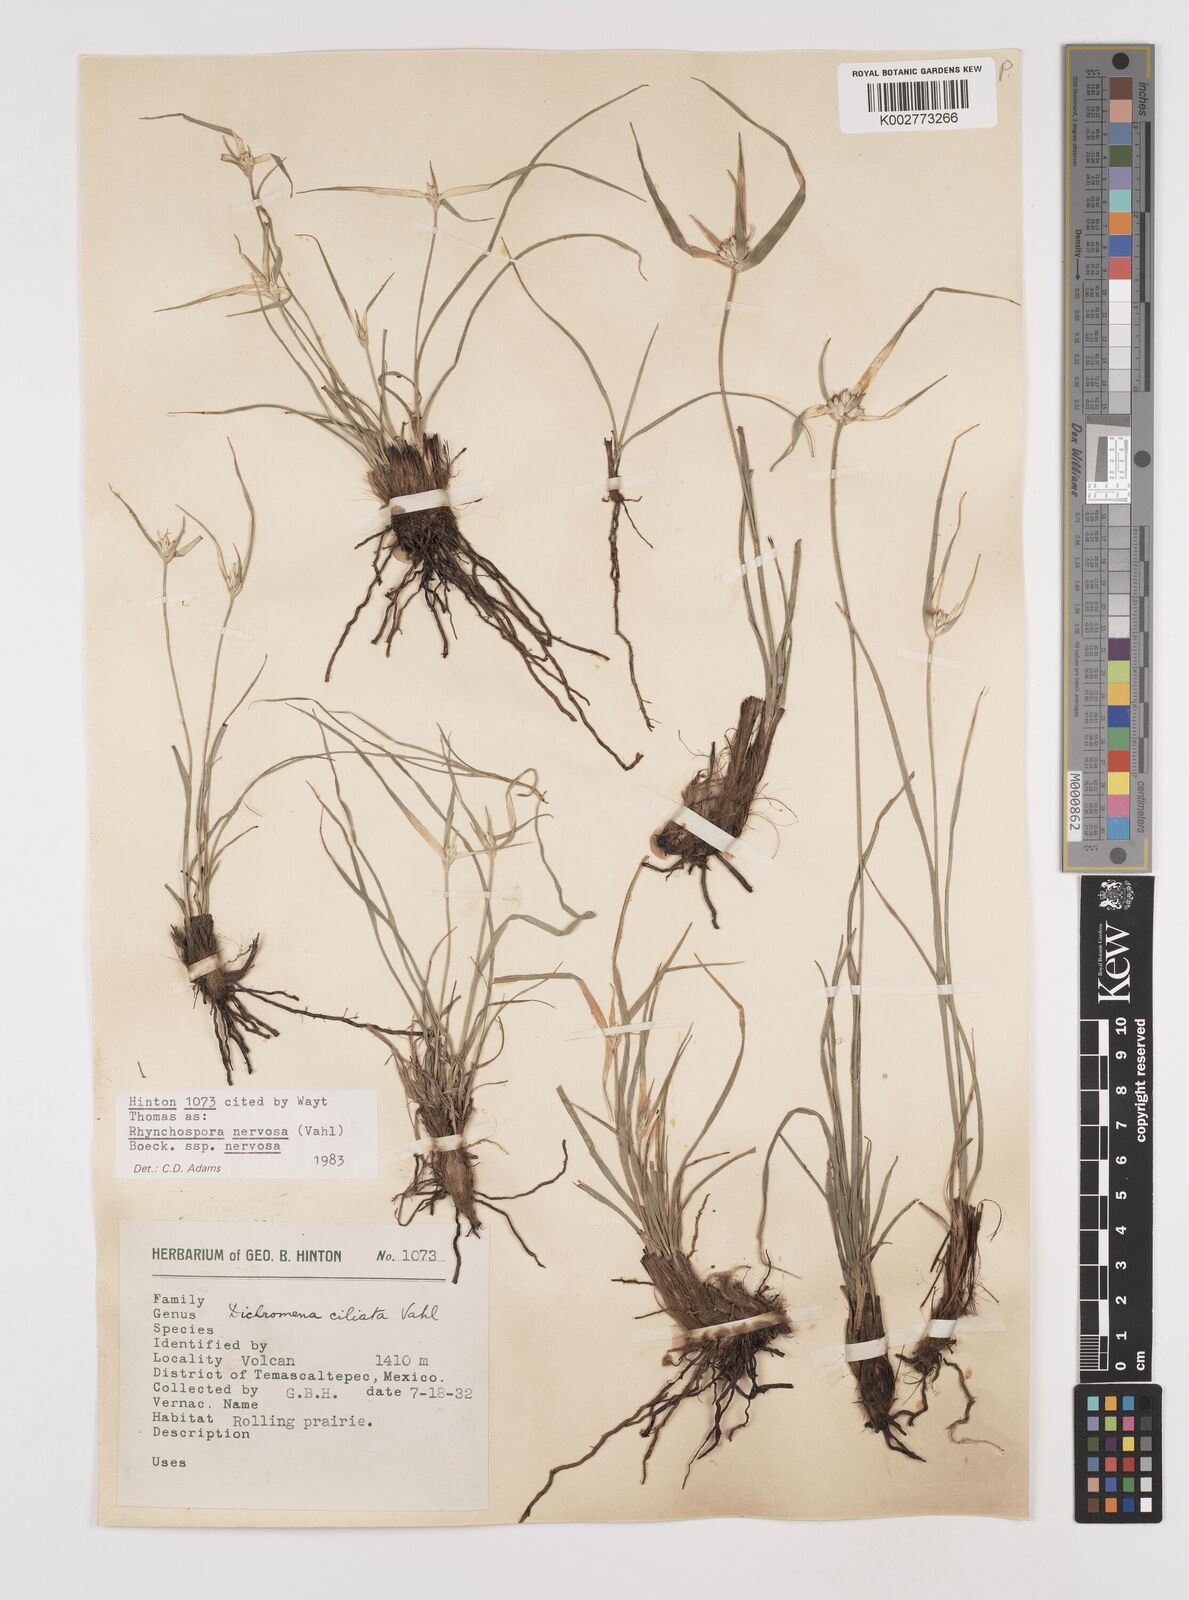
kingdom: Plantae
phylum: Tracheophyta
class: Liliopsida
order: Poales
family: Cyperaceae
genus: Rhynchospora
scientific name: Rhynchospora nervosa
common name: Star sedge
